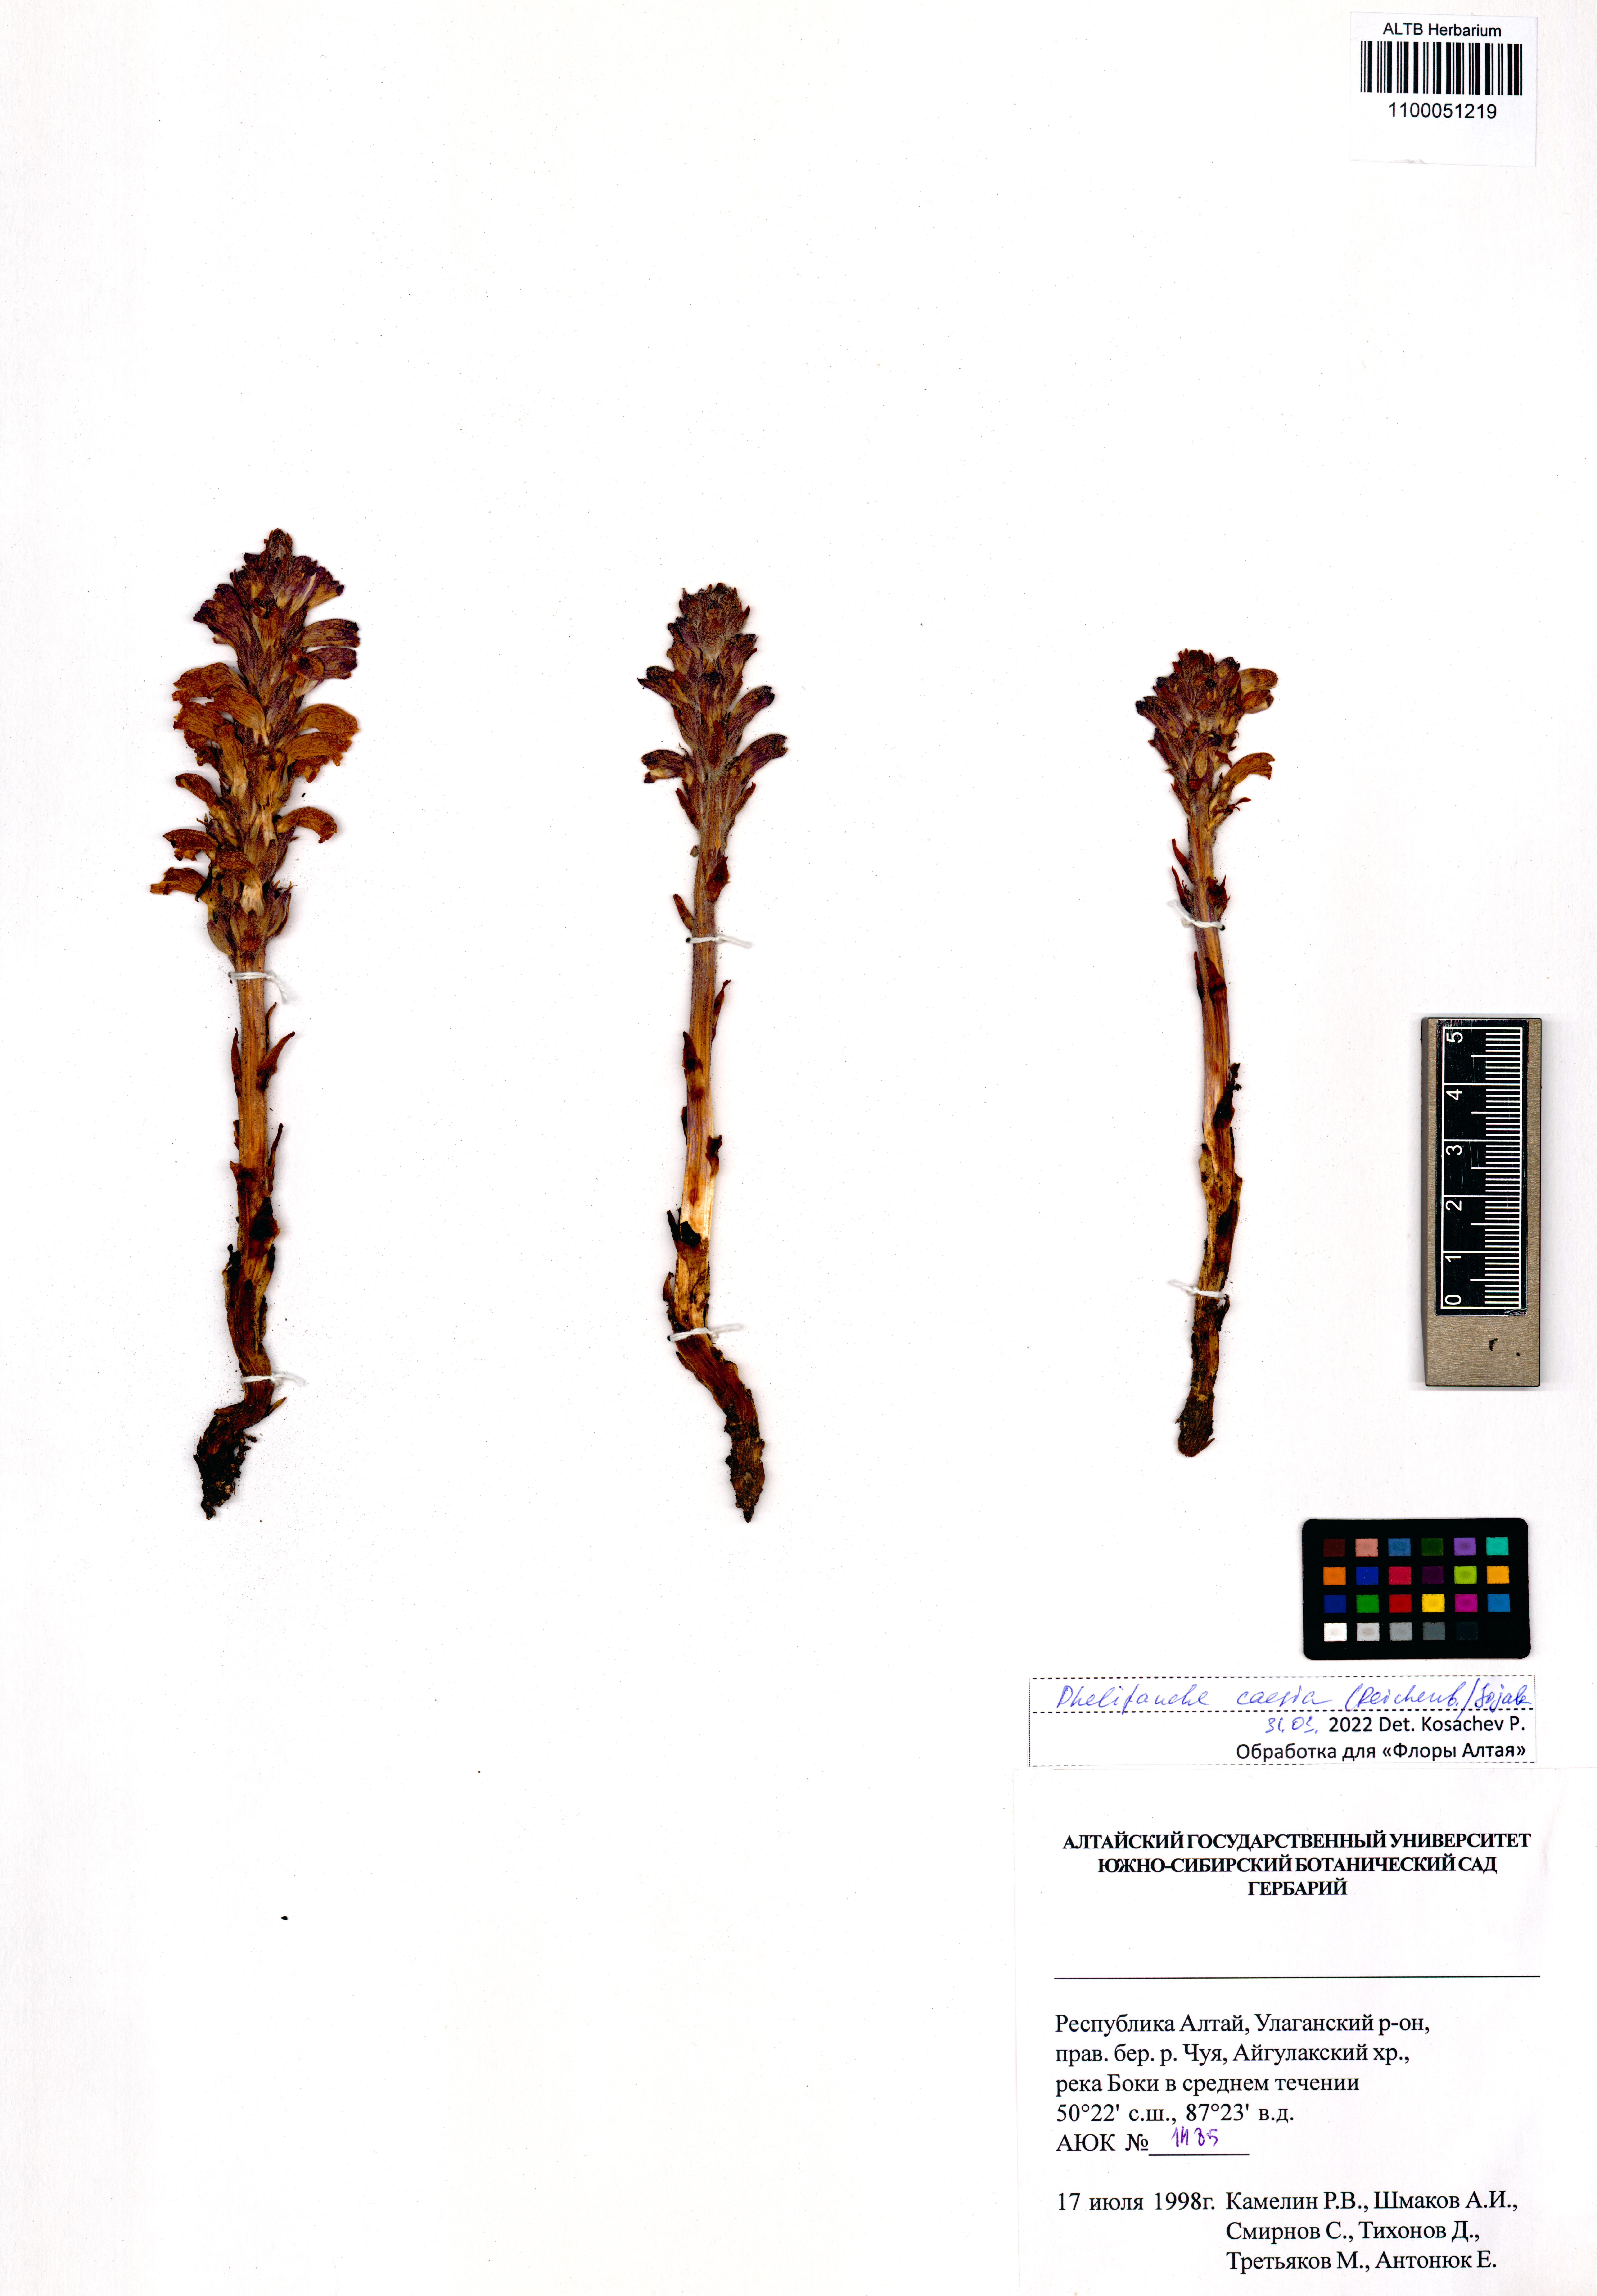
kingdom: Plantae
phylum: Tracheophyta
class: Magnoliopsida
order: Lamiales
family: Orobanchaceae
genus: Phelipanche
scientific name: Phelipanche caesia
